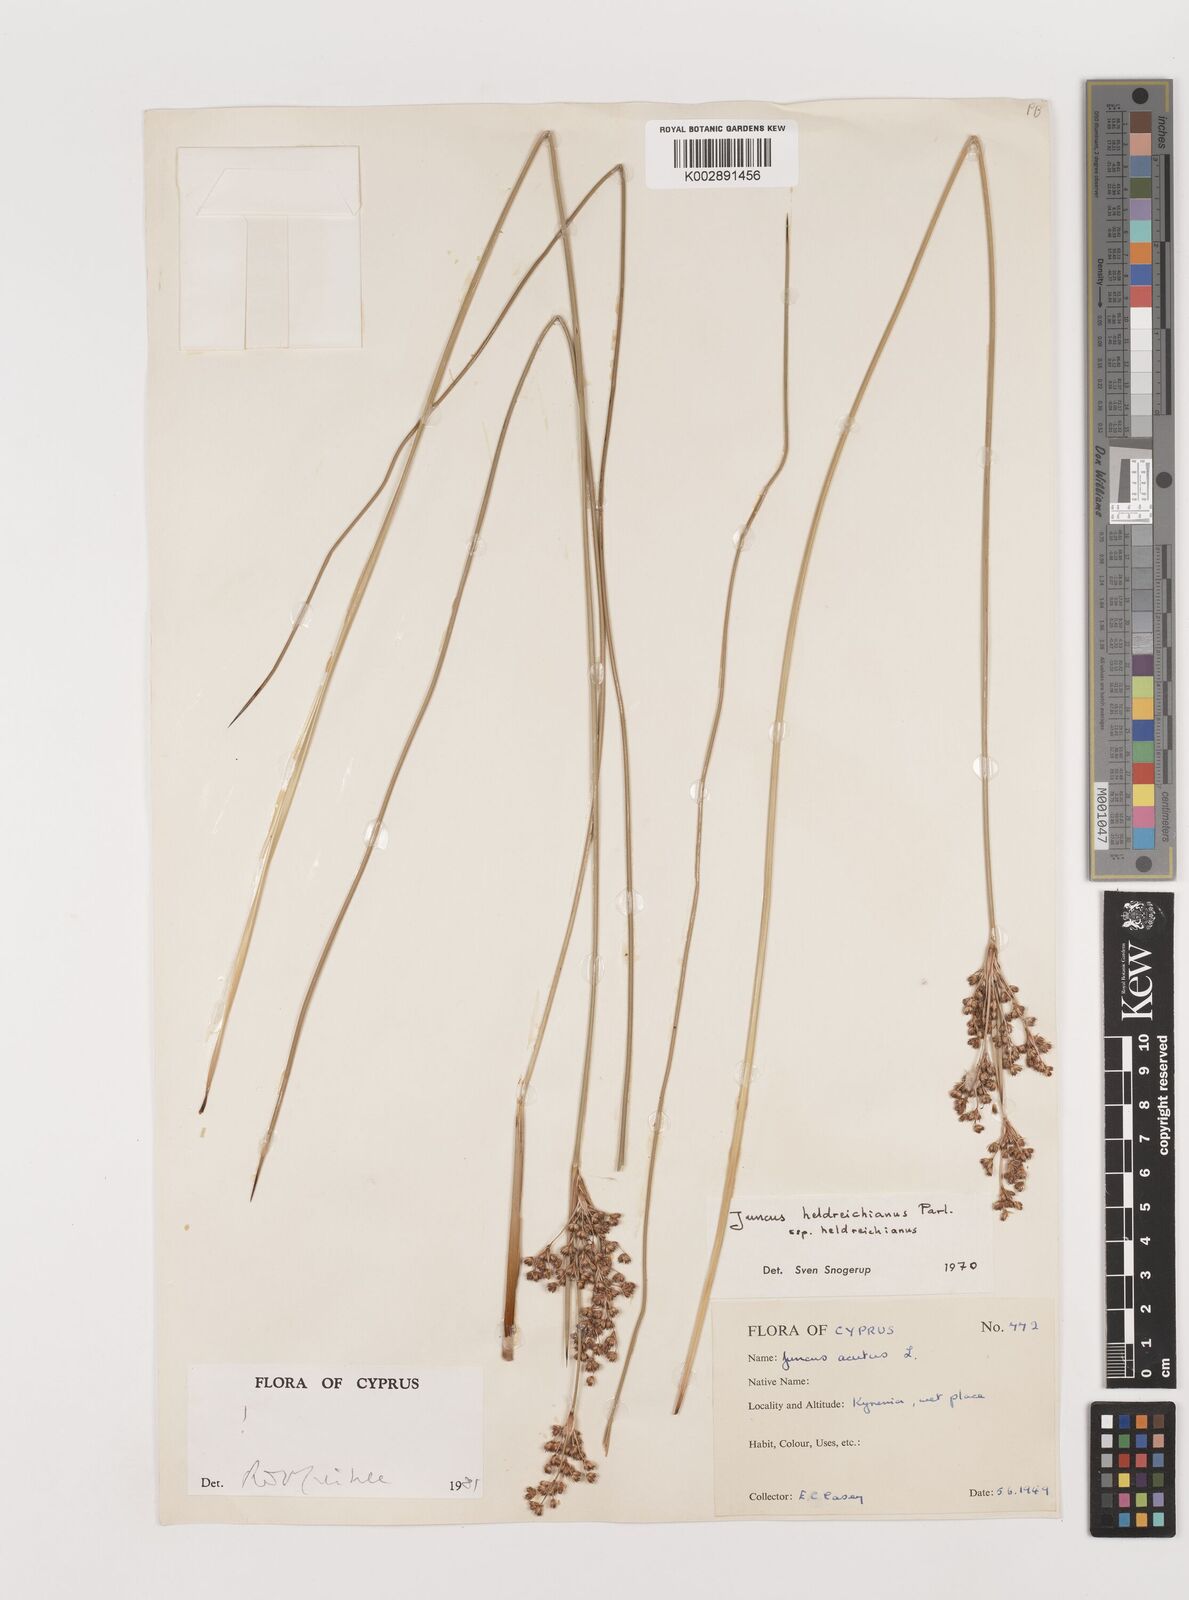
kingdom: Plantae
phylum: Tracheophyta
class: Liliopsida
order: Poales
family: Juncaceae
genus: Juncus
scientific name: Juncus heldreichianus
